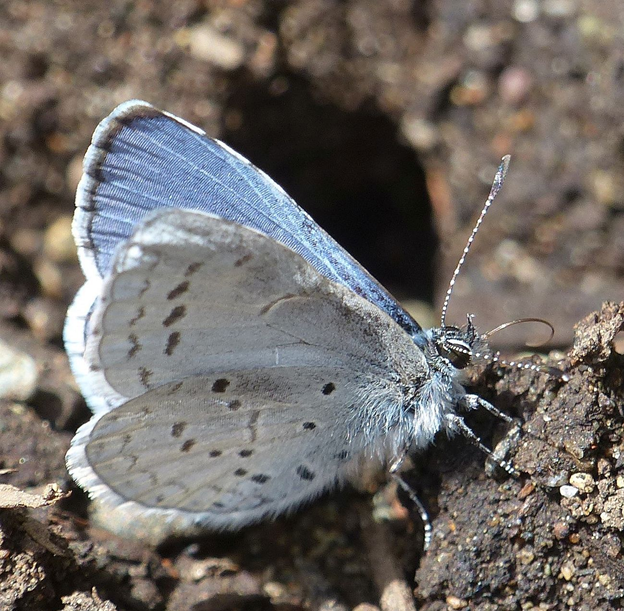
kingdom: Animalia
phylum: Arthropoda
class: Insecta
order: Lepidoptera
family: Lycaenidae
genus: Celastrina
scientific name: Celastrina ladon
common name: Echo Azure
